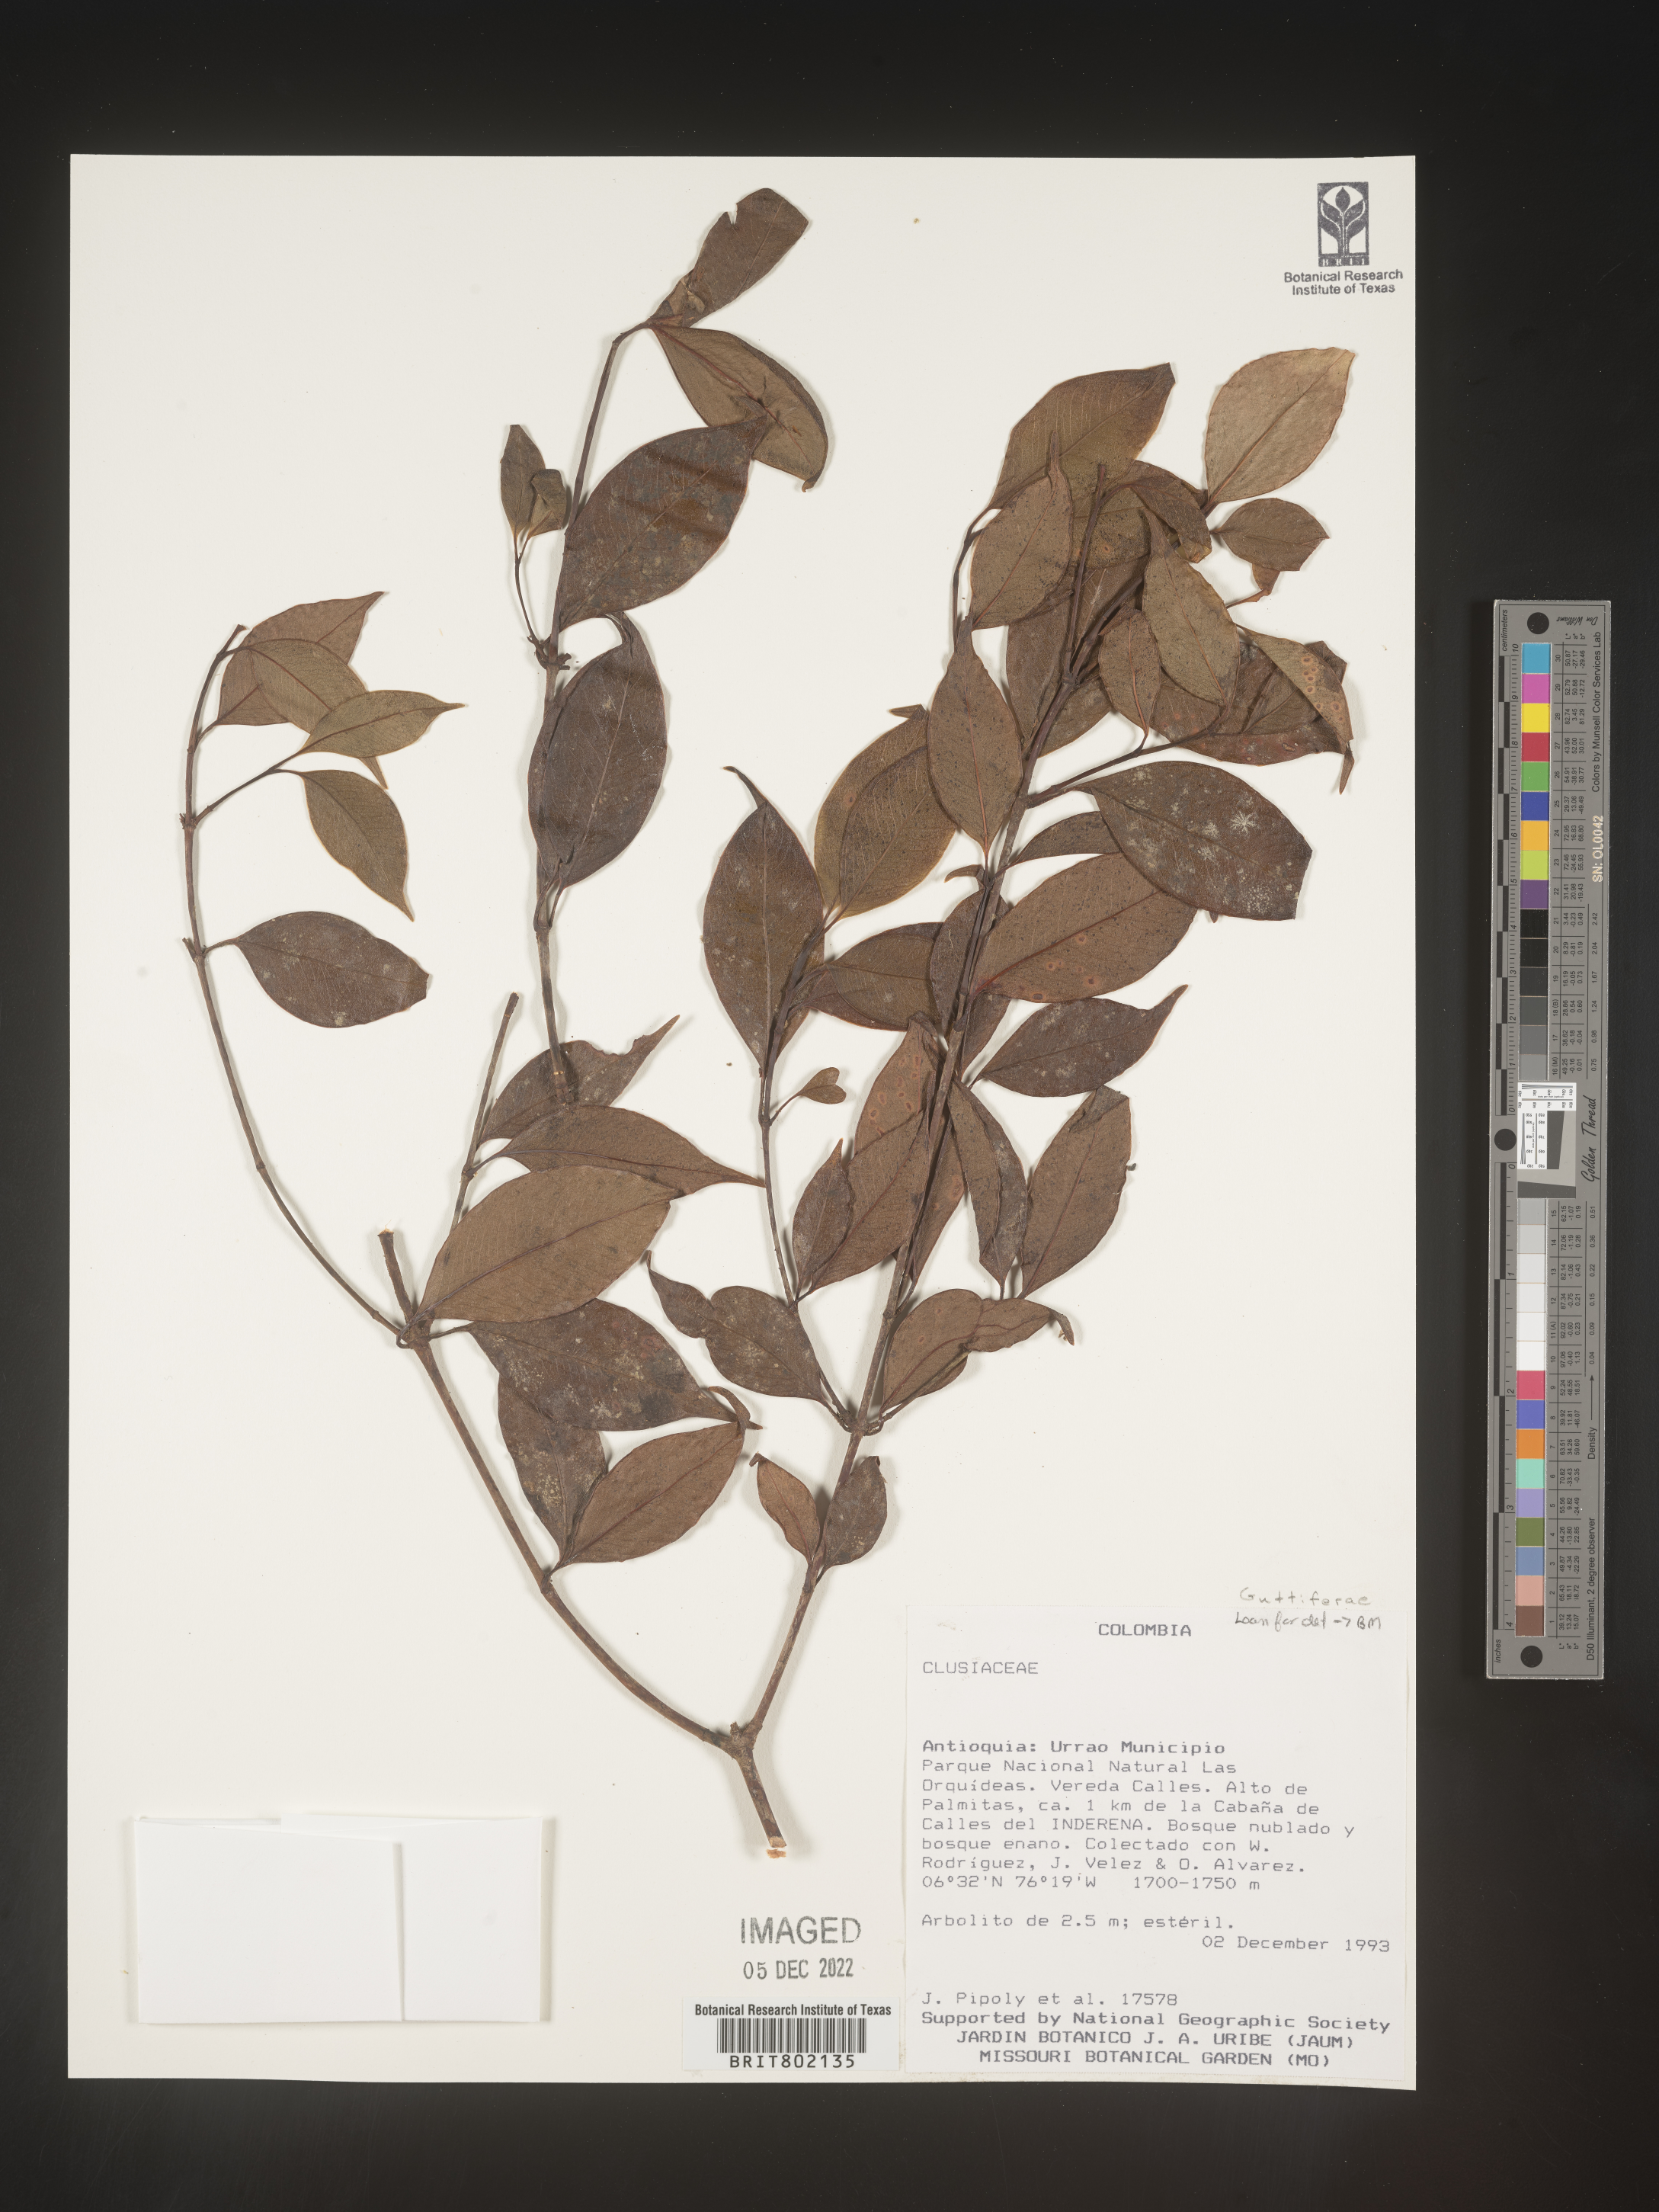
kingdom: Plantae
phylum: Tracheophyta
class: Magnoliopsida
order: Malpighiales
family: Clusiaceae
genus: Clusia
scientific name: Clusia
